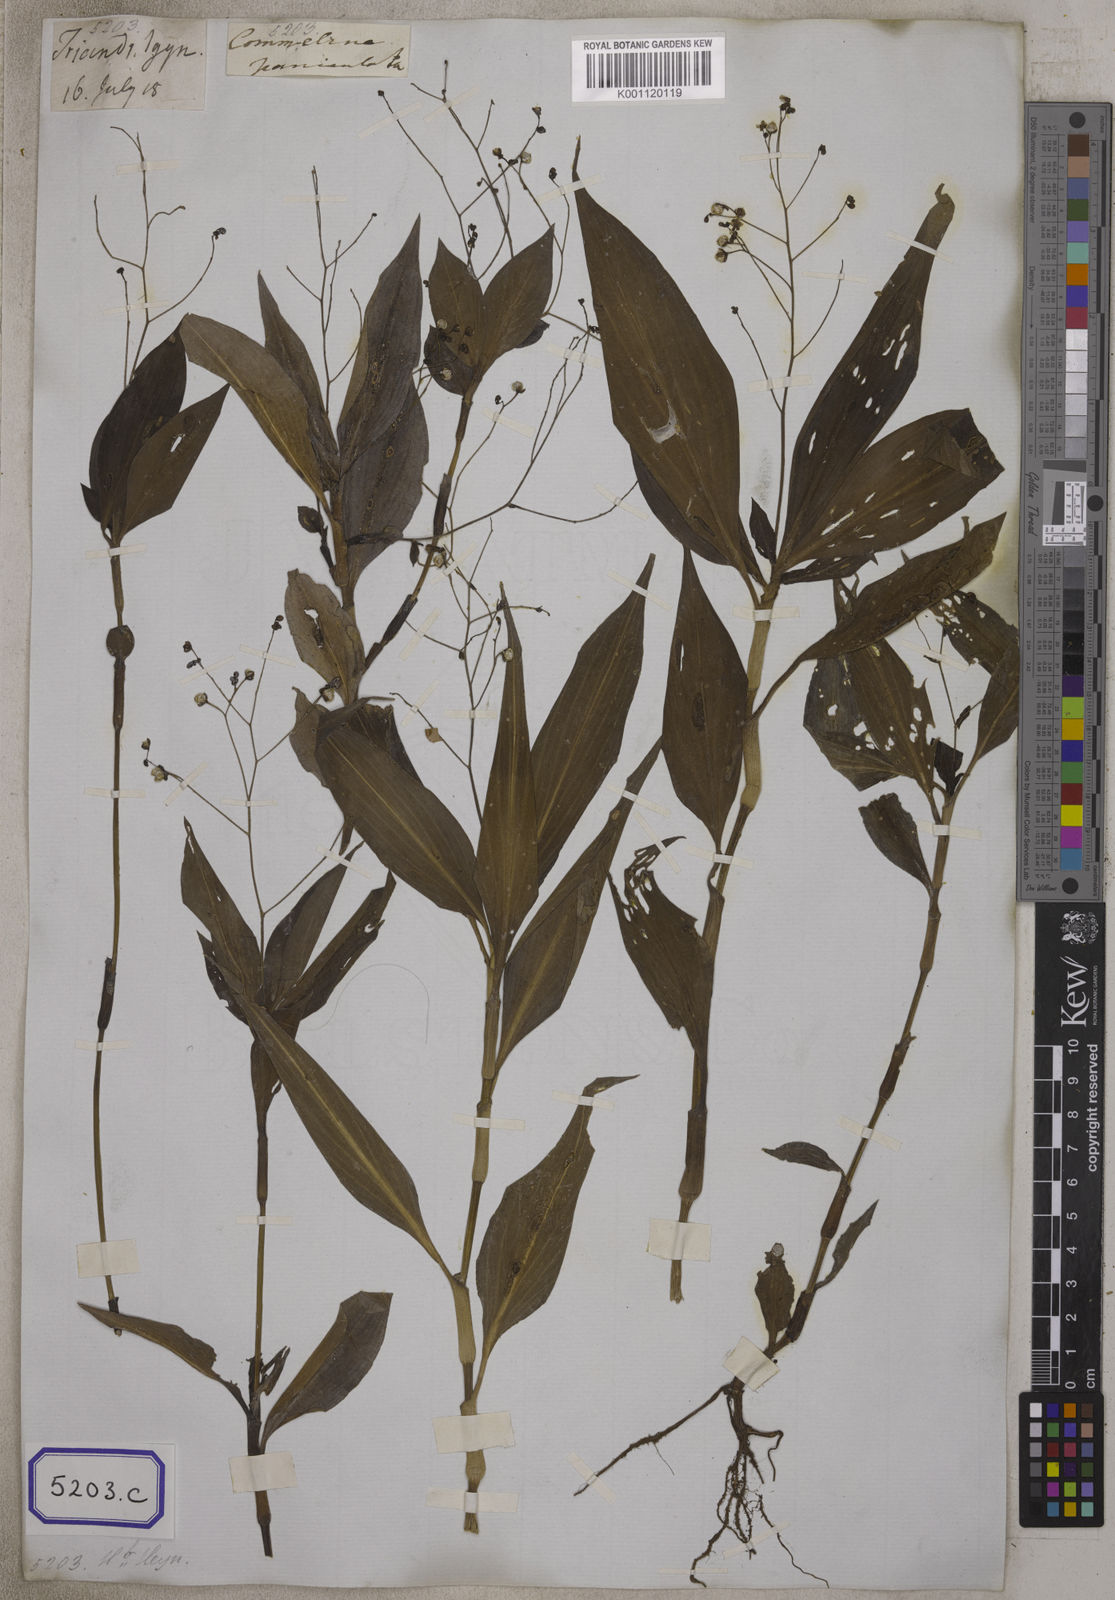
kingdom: Plantae
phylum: Tracheophyta
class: Liliopsida
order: Commelinales
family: Commelinaceae
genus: Dictyospermum
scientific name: Dictyospermum montanum
